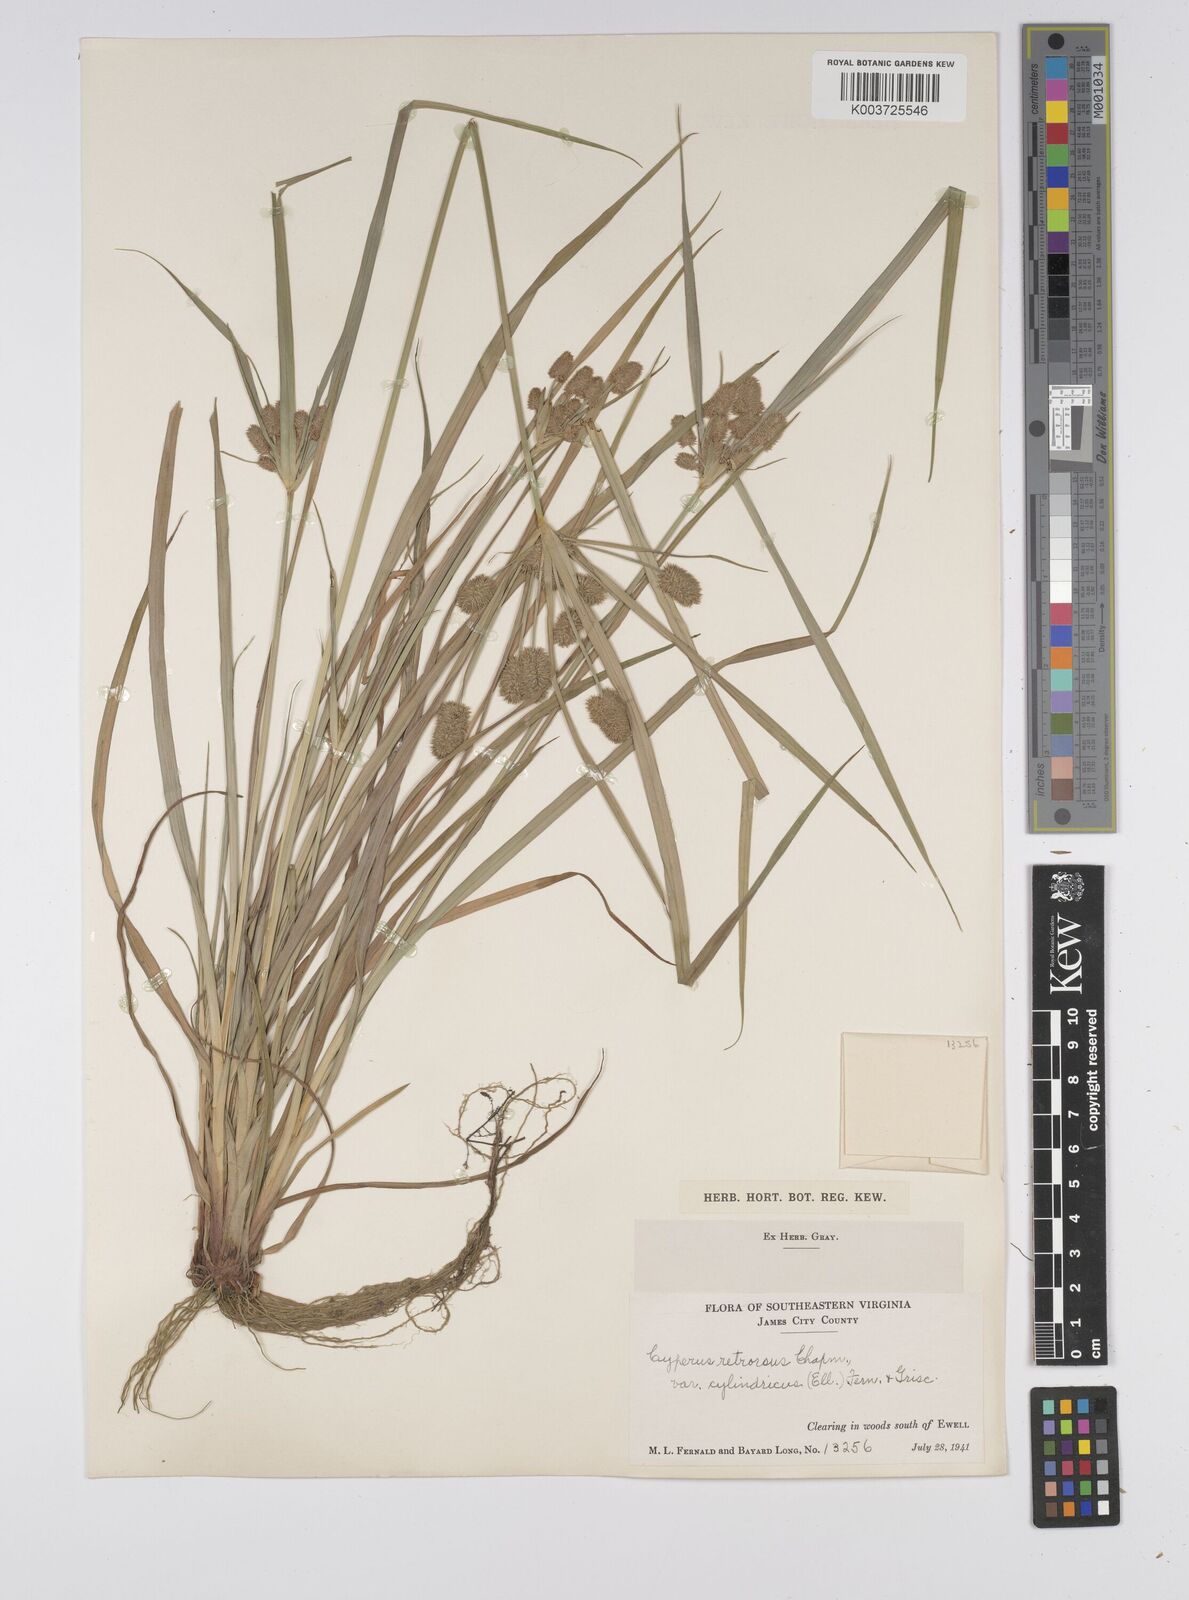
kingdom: Plantae
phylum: Tracheophyta
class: Liliopsida
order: Poales
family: Cyperaceae
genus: Cyperus
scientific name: Cyperus retrorsus
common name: Pinebarren flat sedge
